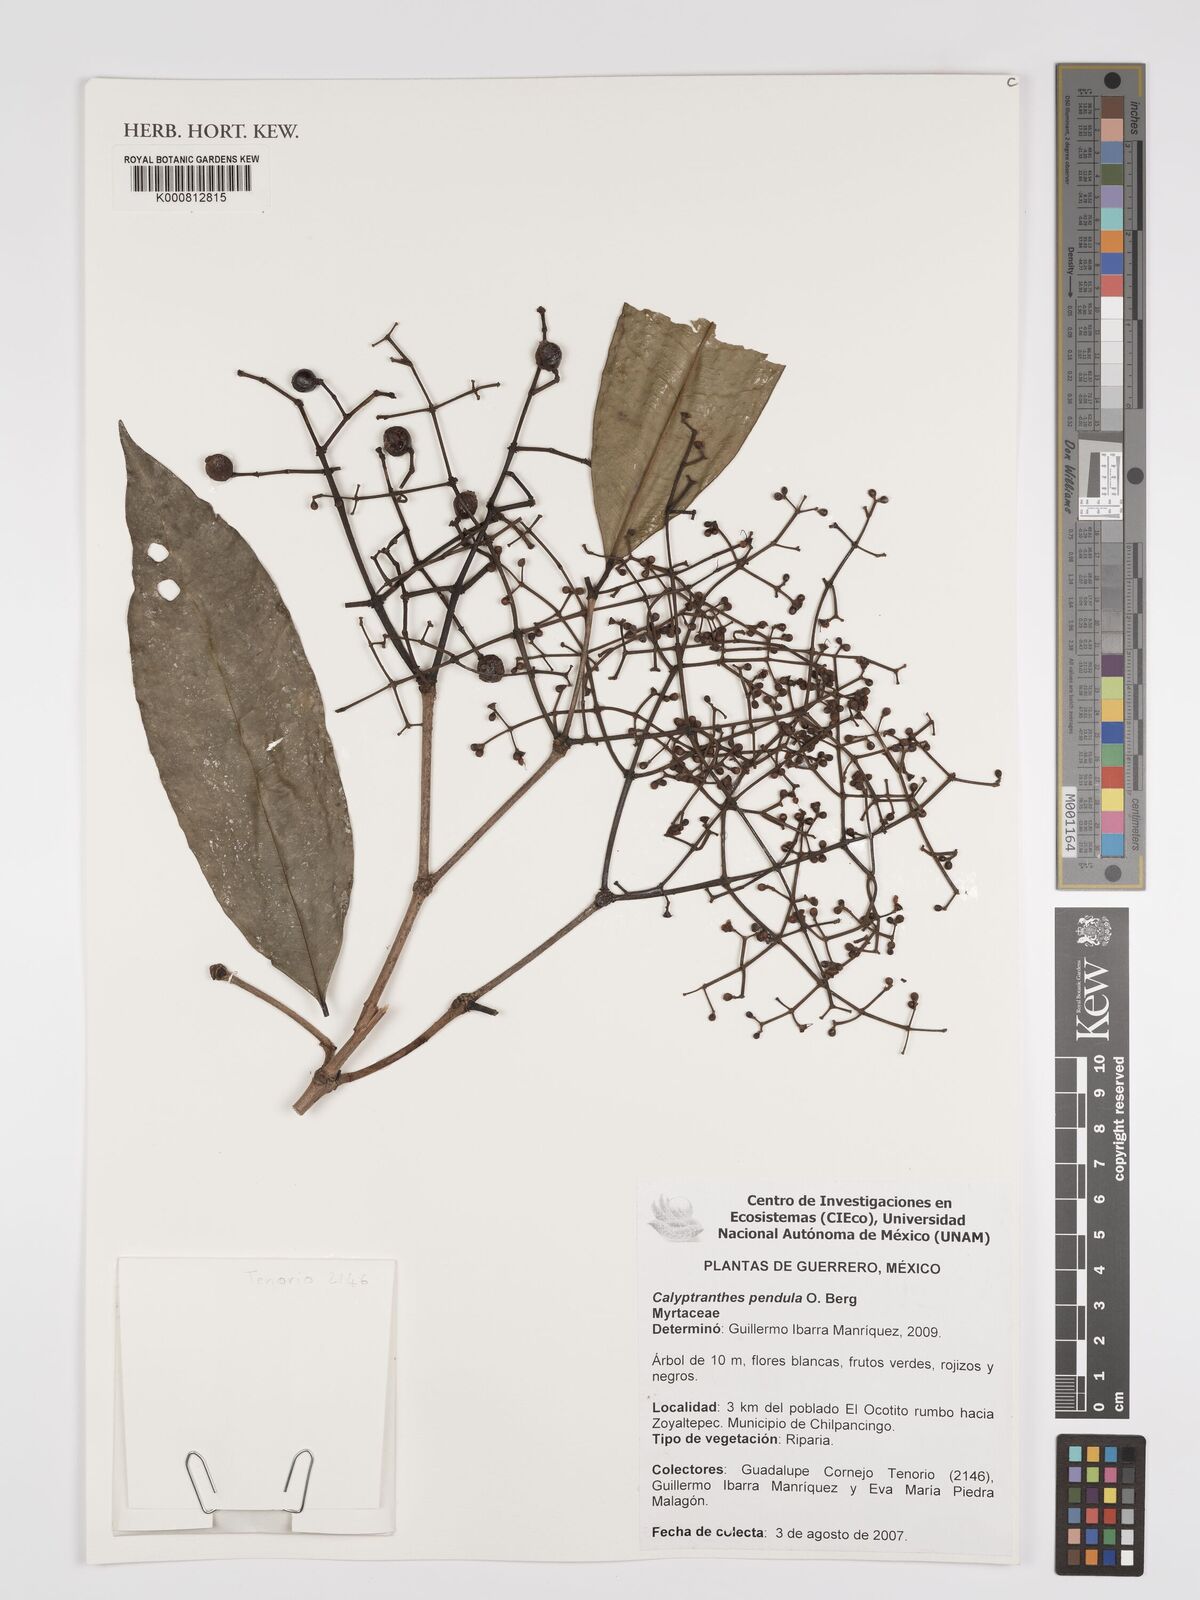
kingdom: Plantae
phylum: Tracheophyta
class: Magnoliopsida
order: Myrtales
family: Myrtaceae
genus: Myrcia
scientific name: Myrcia pendens
